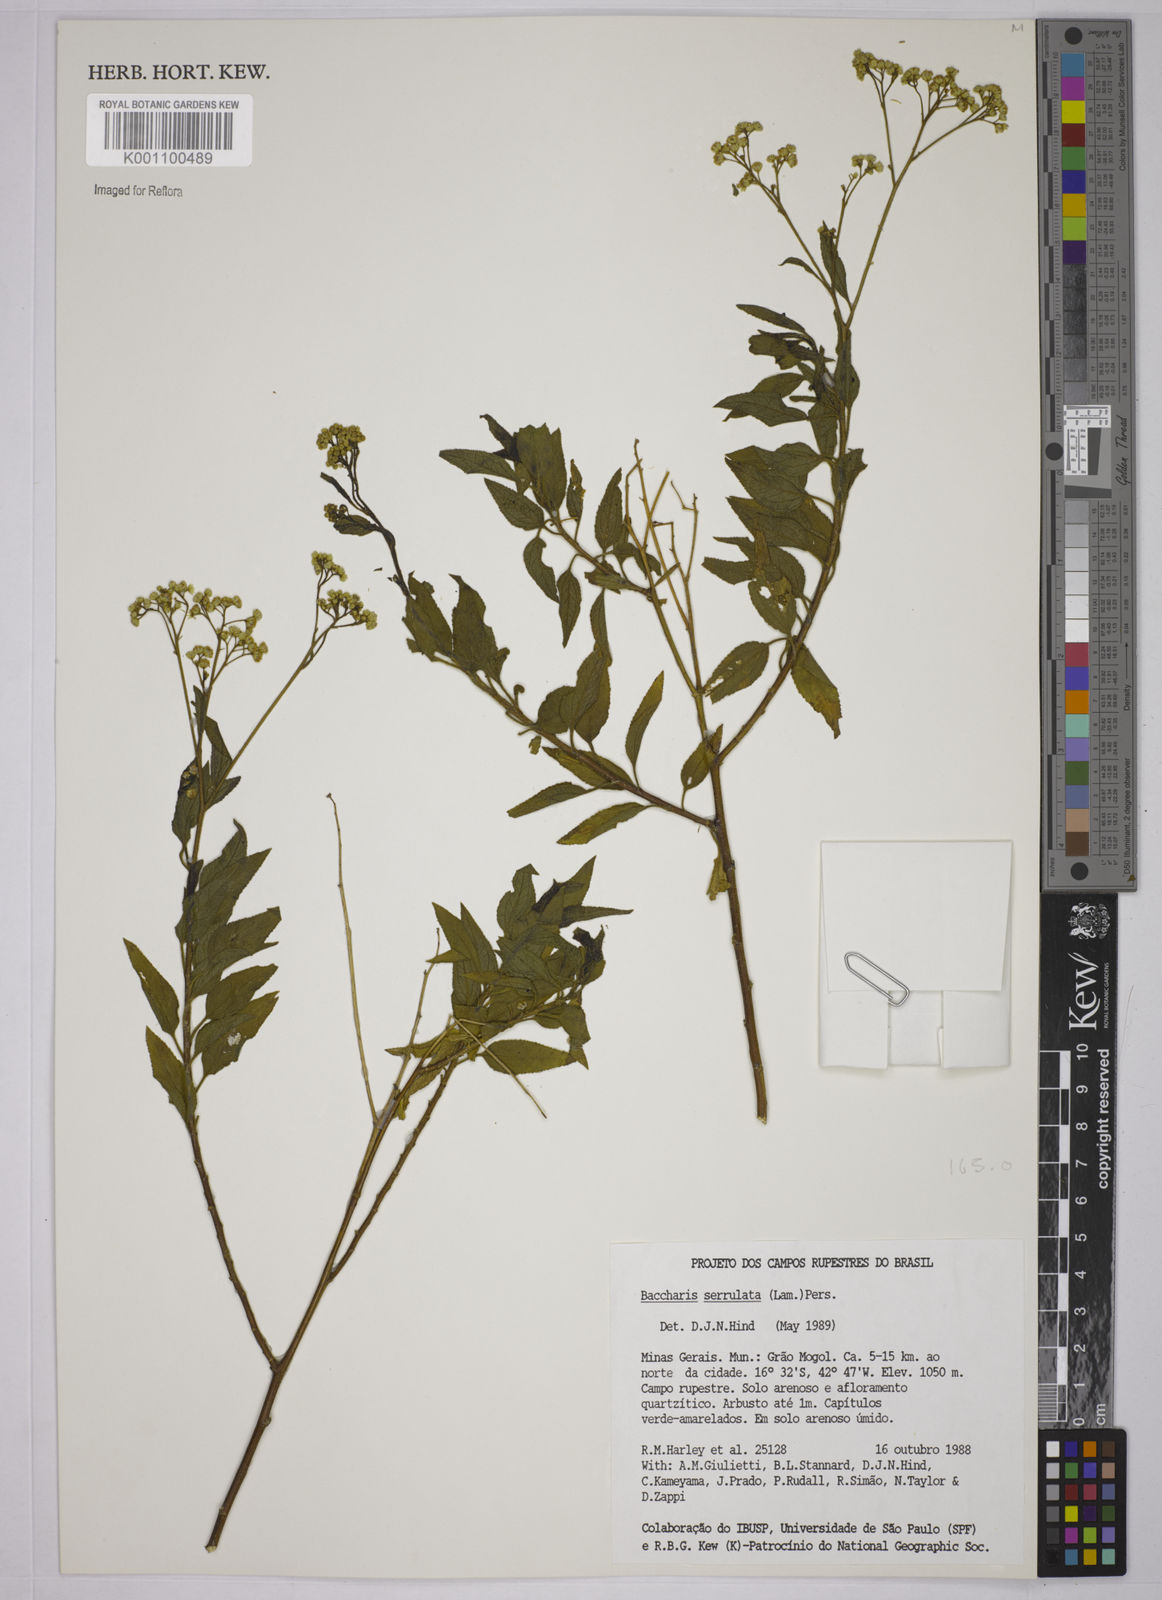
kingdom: Plantae
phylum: Tracheophyta
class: Magnoliopsida
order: Asterales
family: Asteraceae
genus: Baccharis
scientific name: Baccharis serrulata
